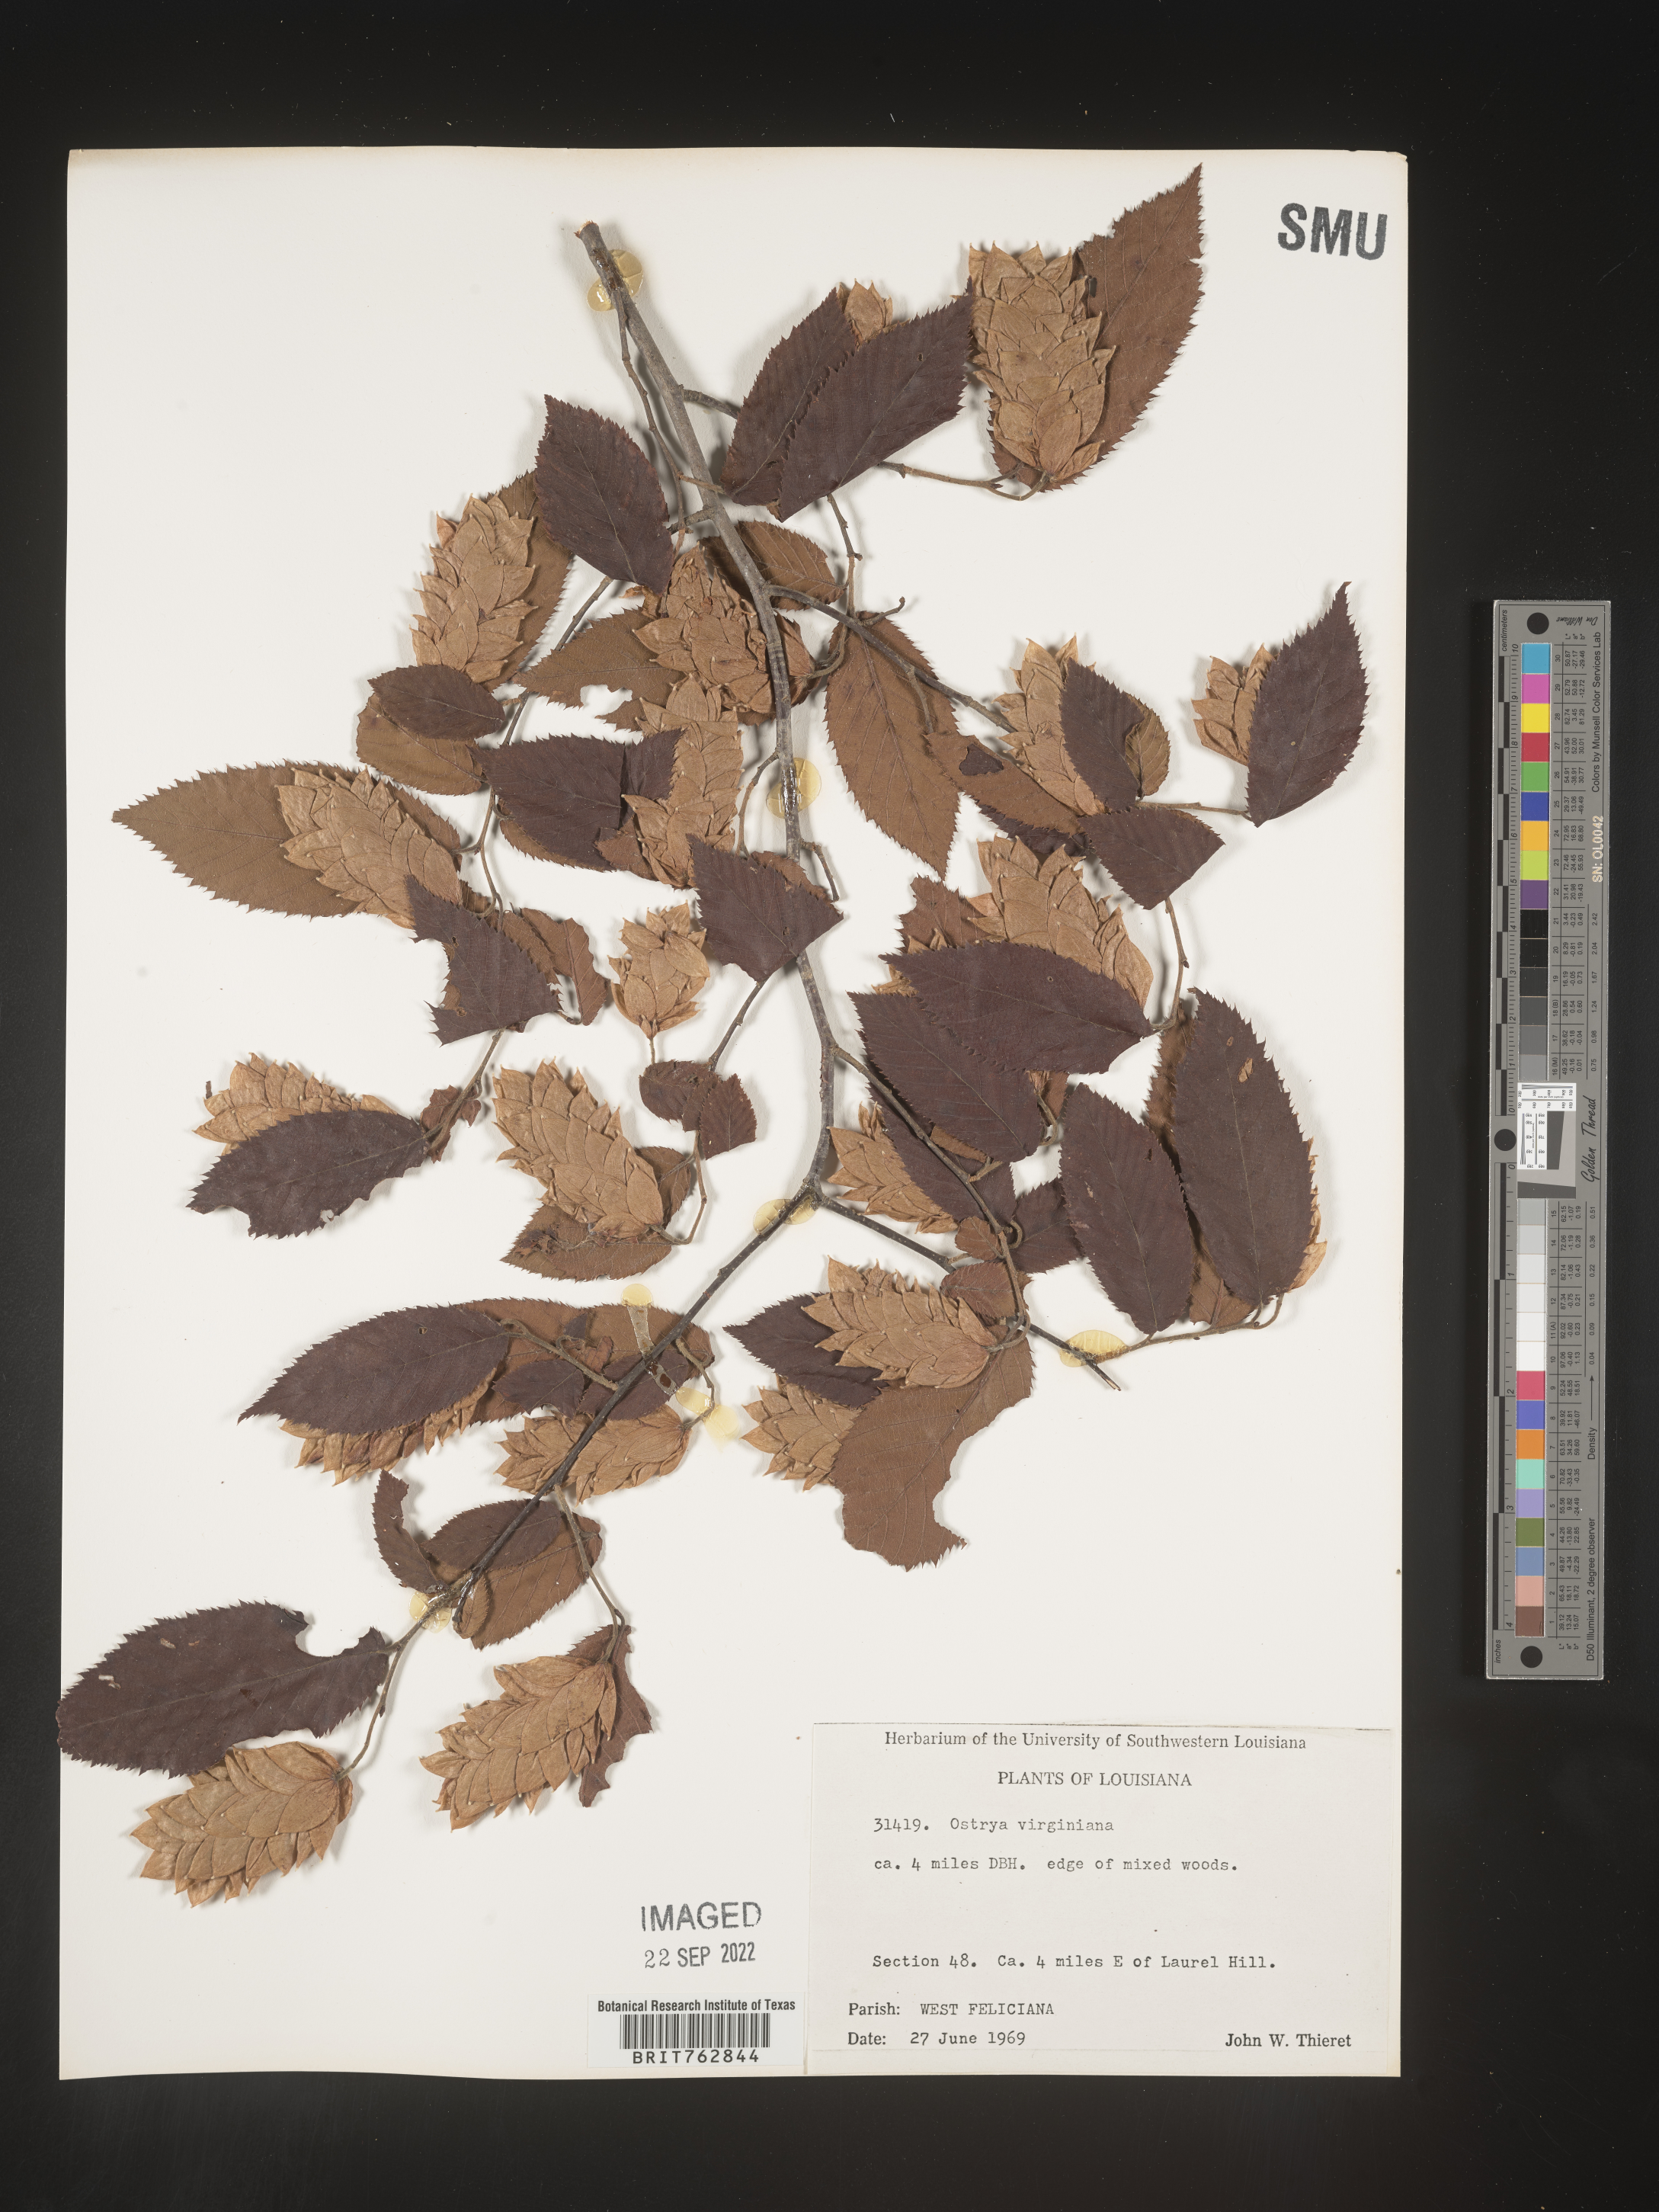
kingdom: Plantae
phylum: Tracheophyta
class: Magnoliopsida
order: Fagales
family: Betulaceae
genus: Ostrya
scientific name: Ostrya virginiana
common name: Ironwood
